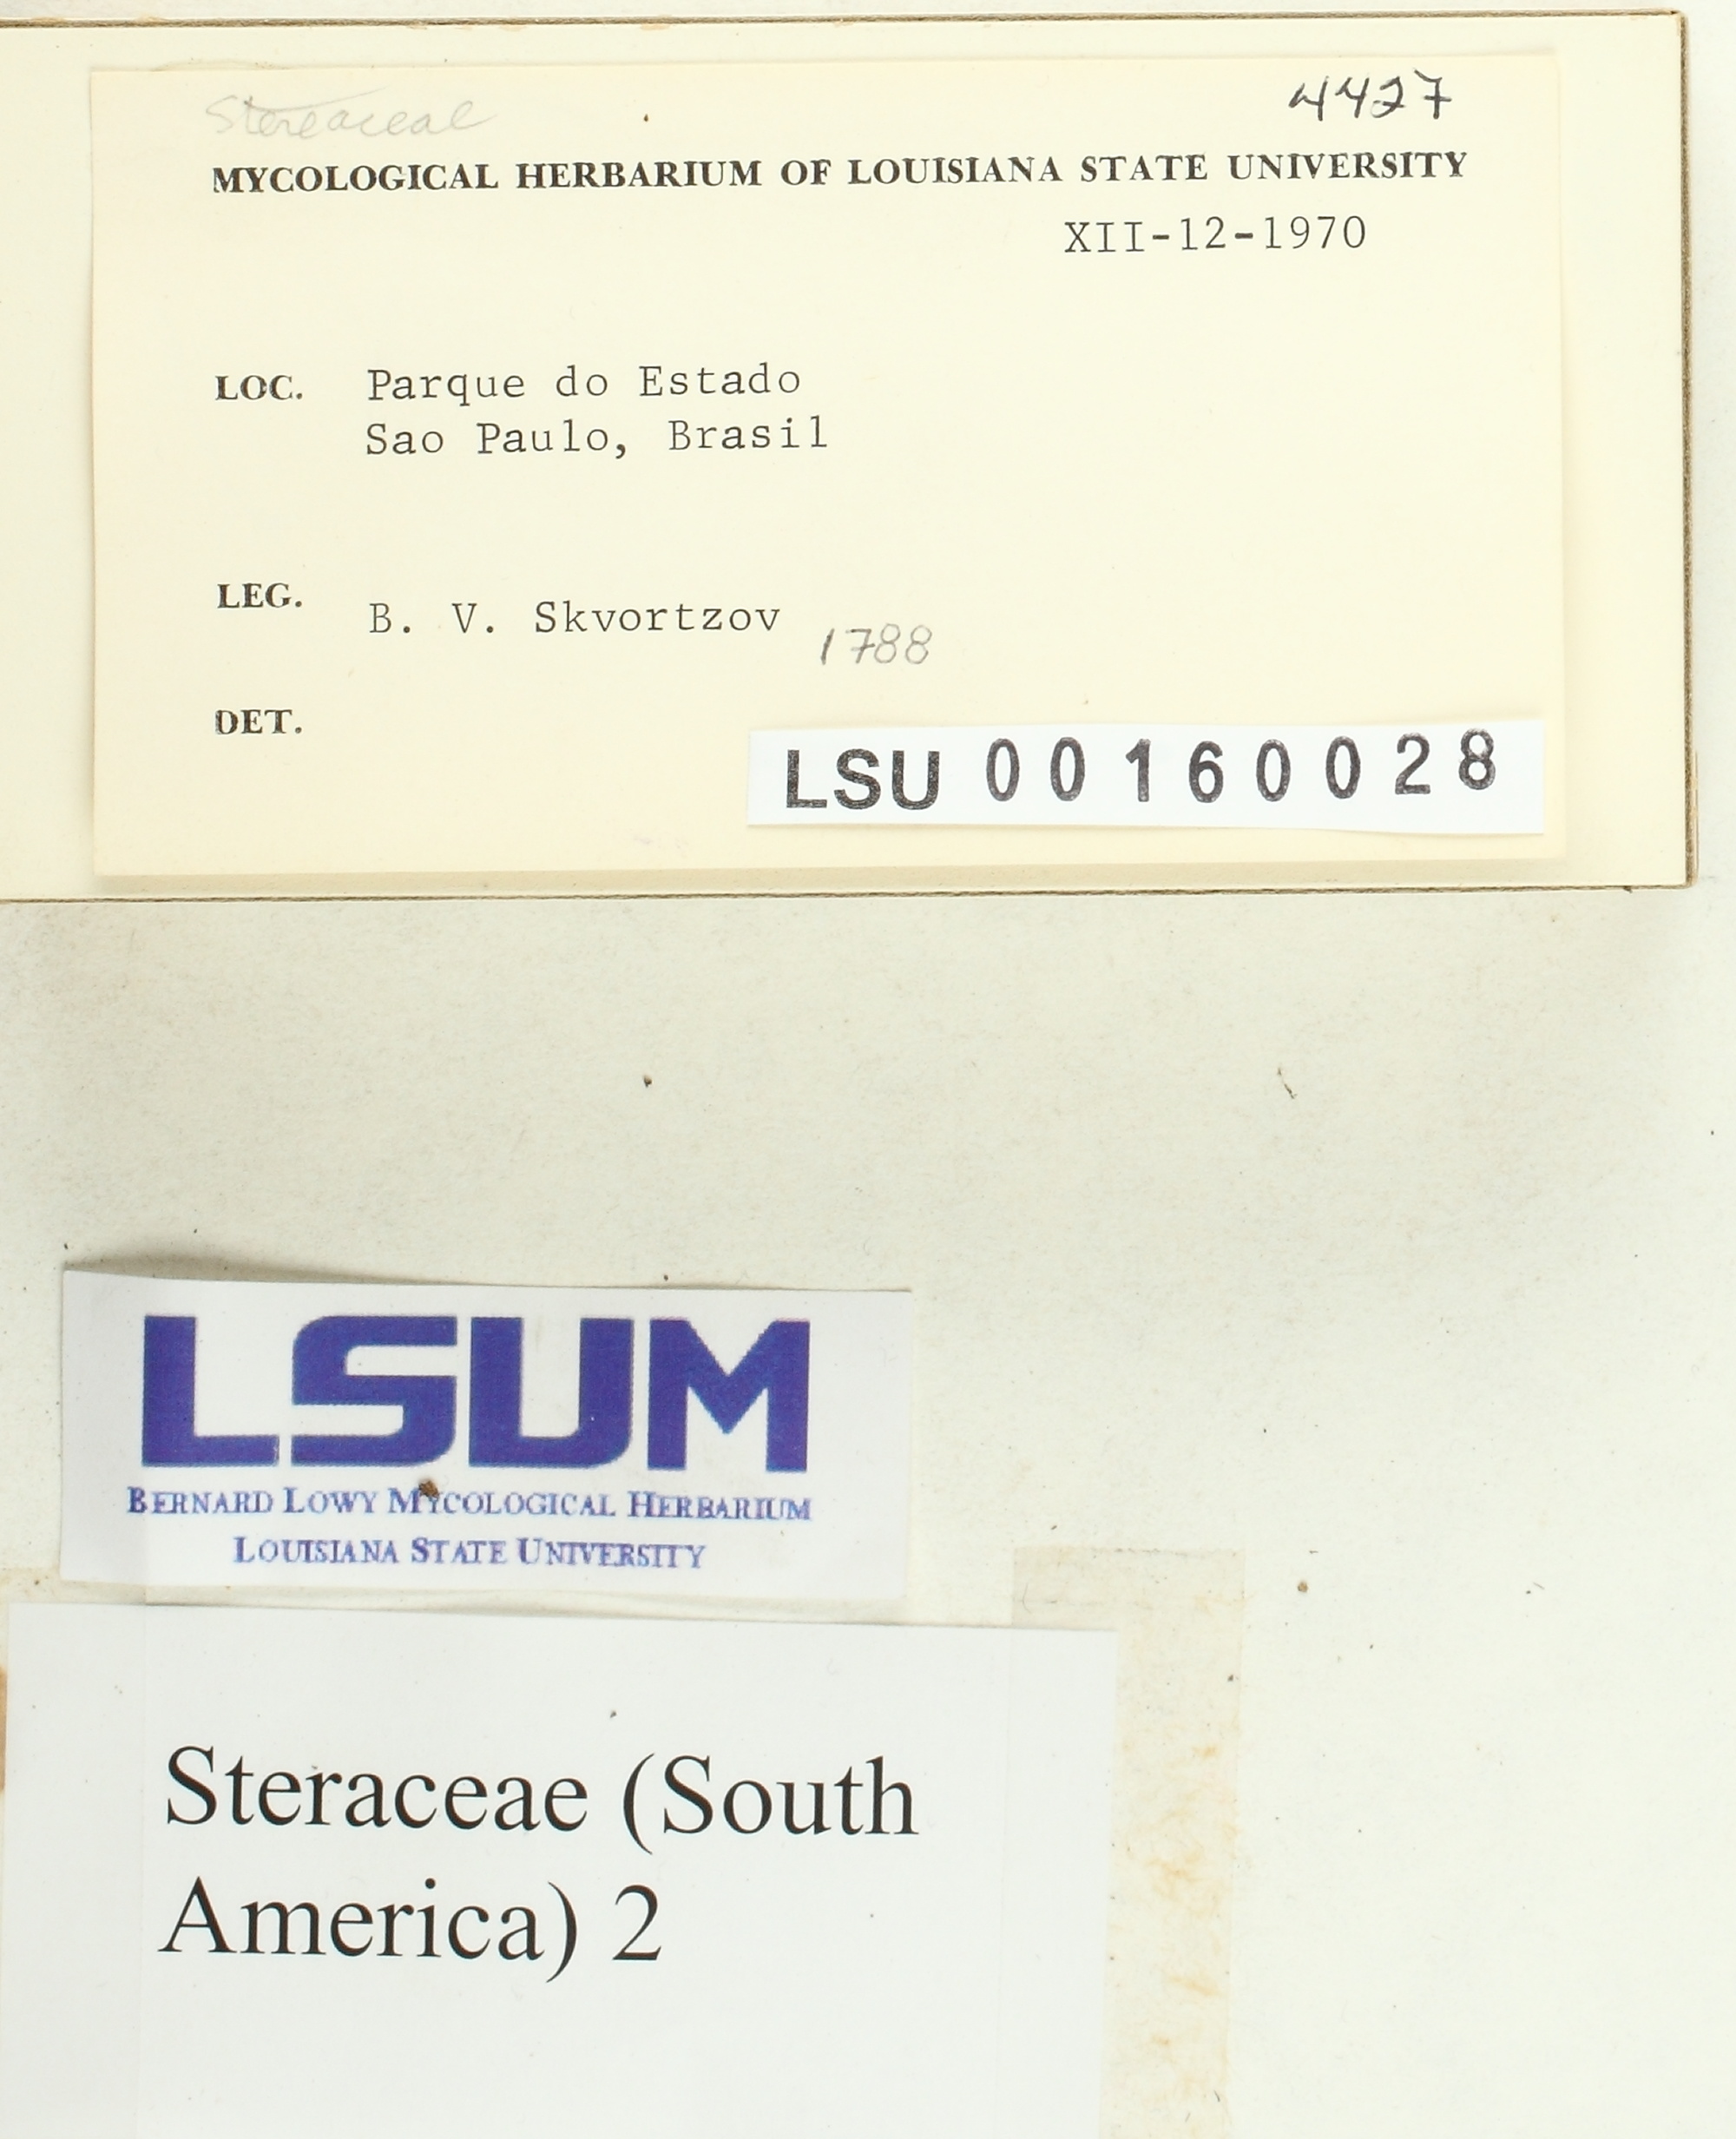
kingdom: Fungi
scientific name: Fungi
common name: Fungi
